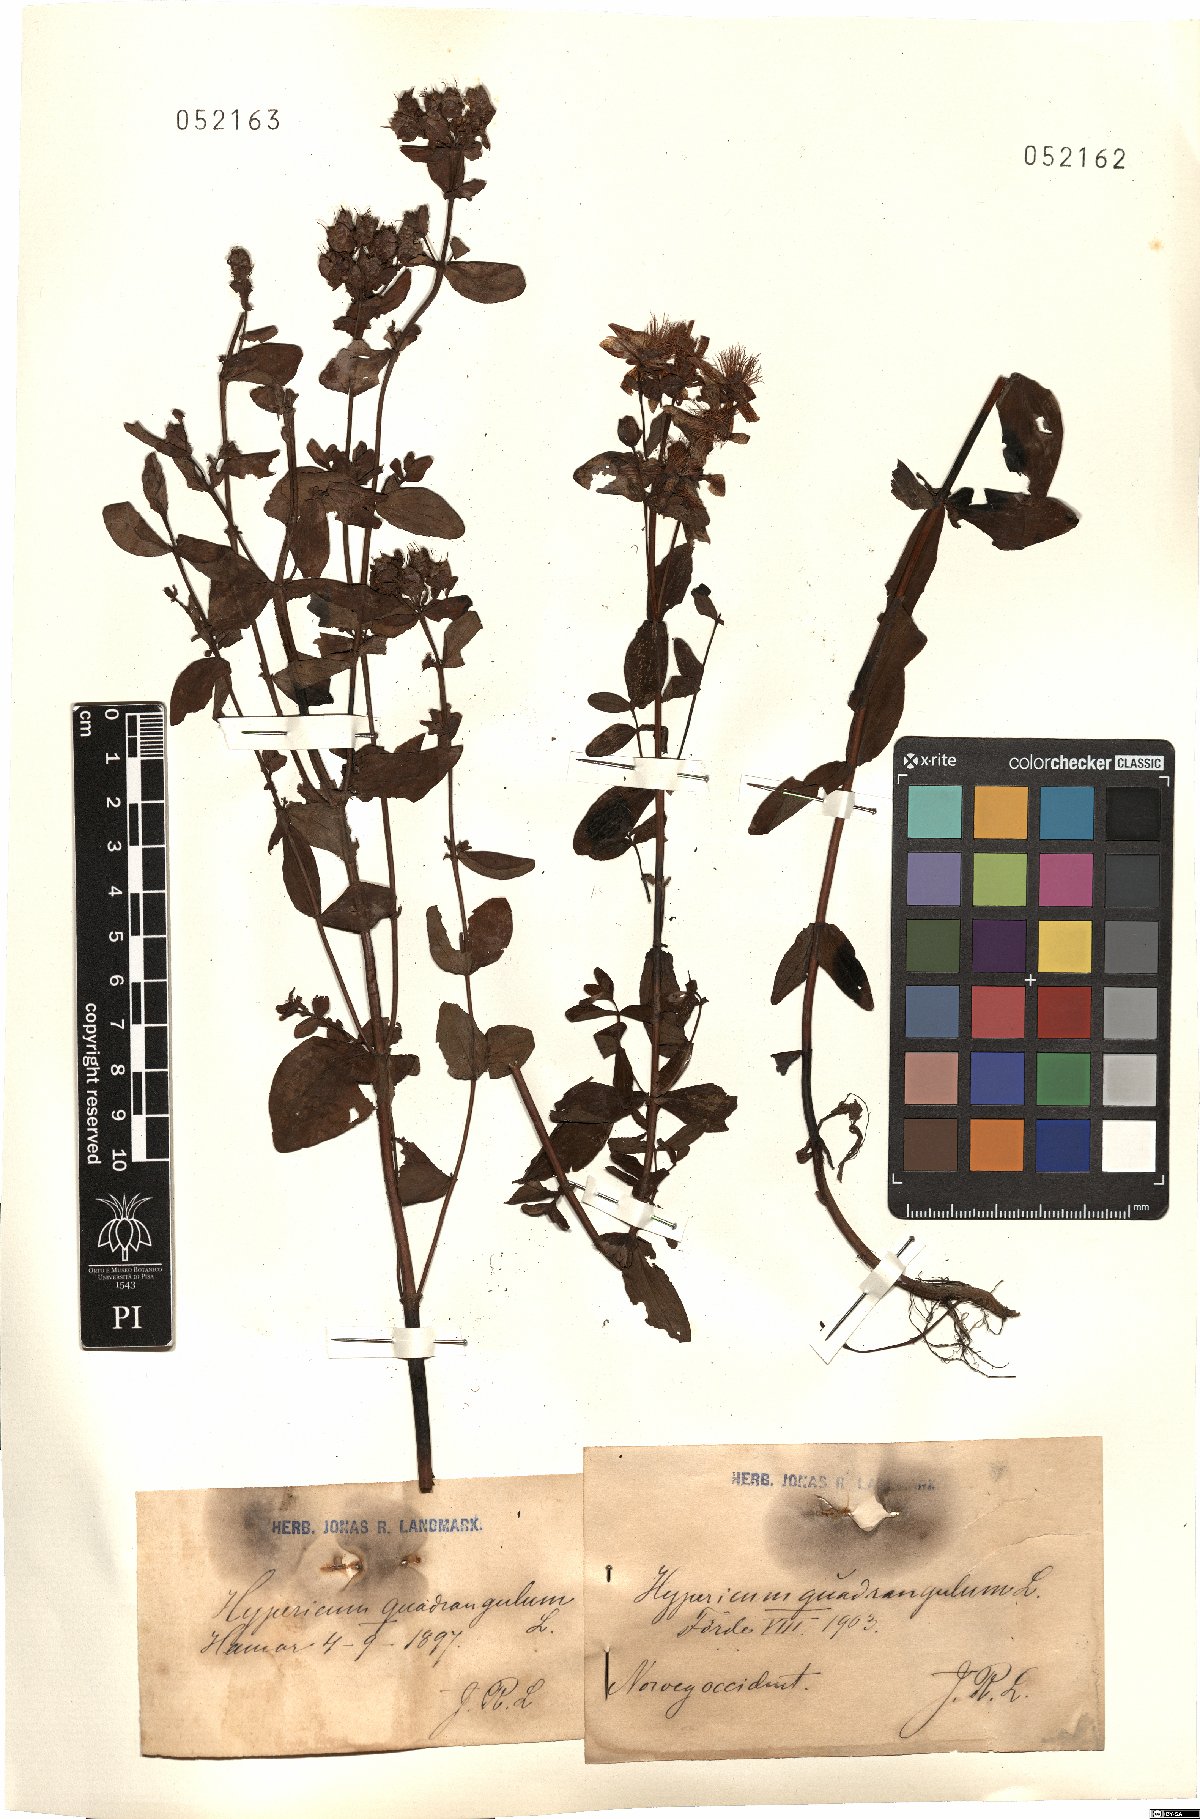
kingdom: Plantae
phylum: Tracheophyta
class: Magnoliopsida
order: Malpighiales
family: Hypericaceae
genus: Hypericum
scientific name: Hypericum tetrapterum
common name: Square-stalked st. john's-wort
